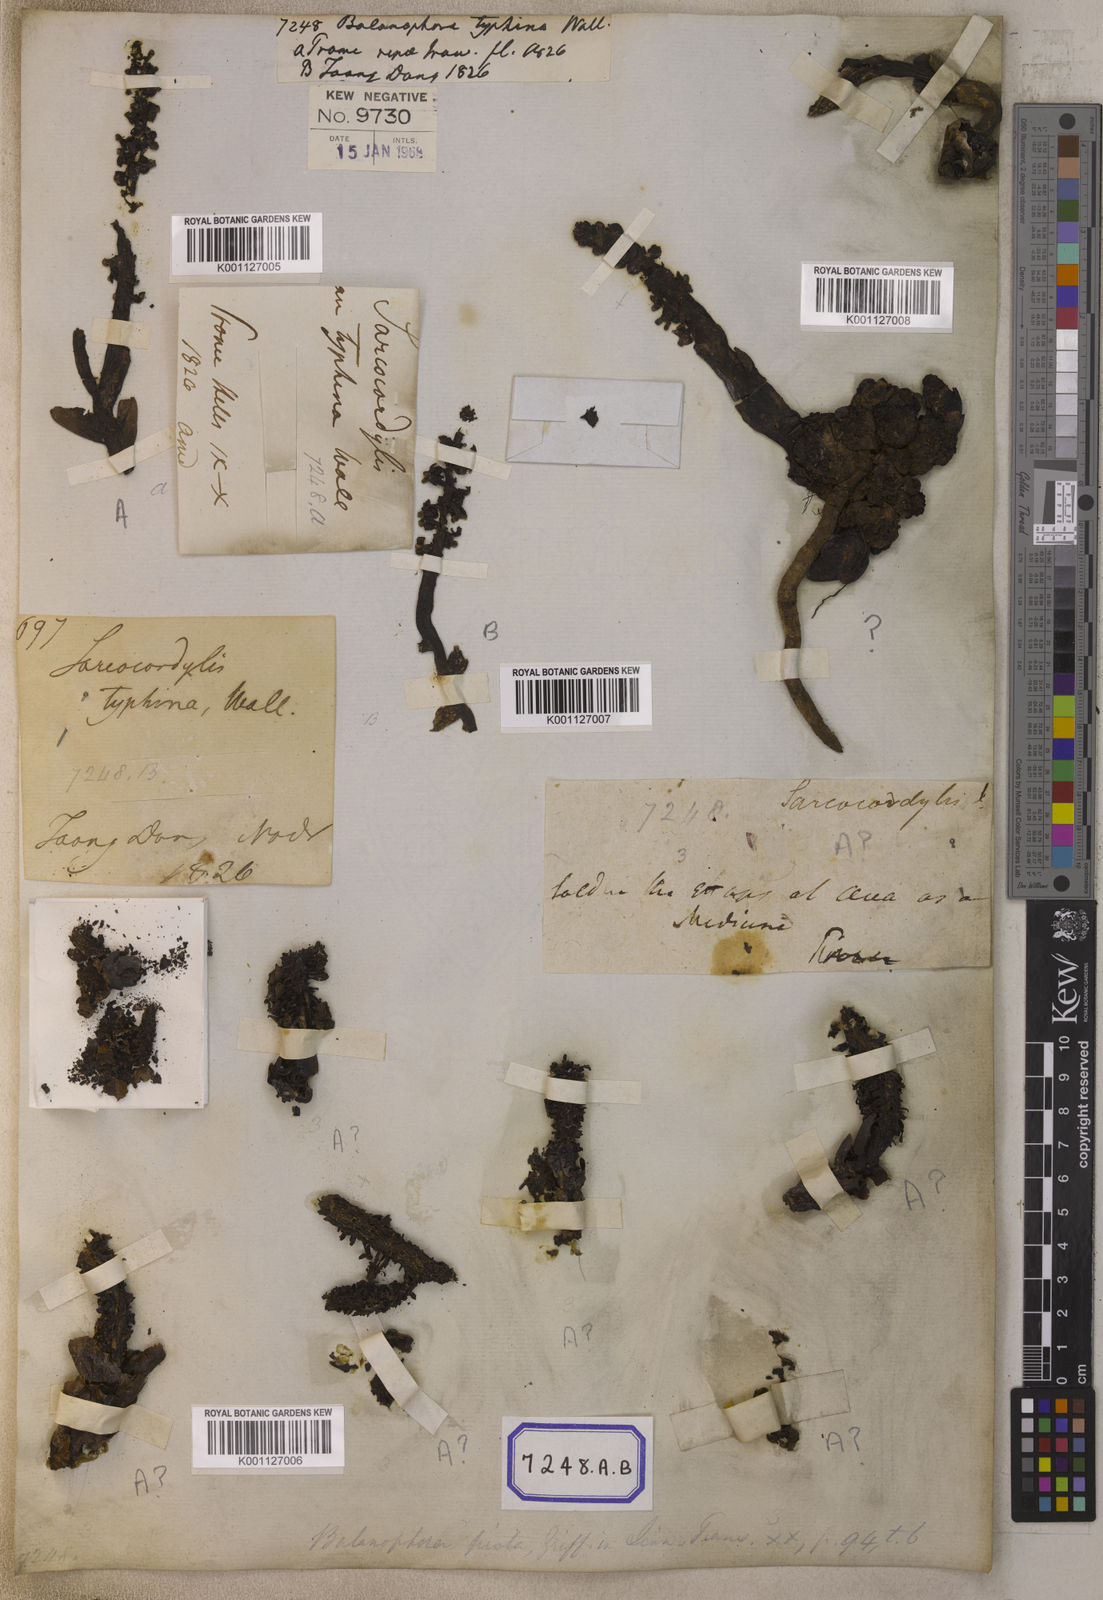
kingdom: Plantae
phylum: Tracheophyta
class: Magnoliopsida
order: Santalales
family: Balanophoraceae
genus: Balanophora
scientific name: Balanophora
